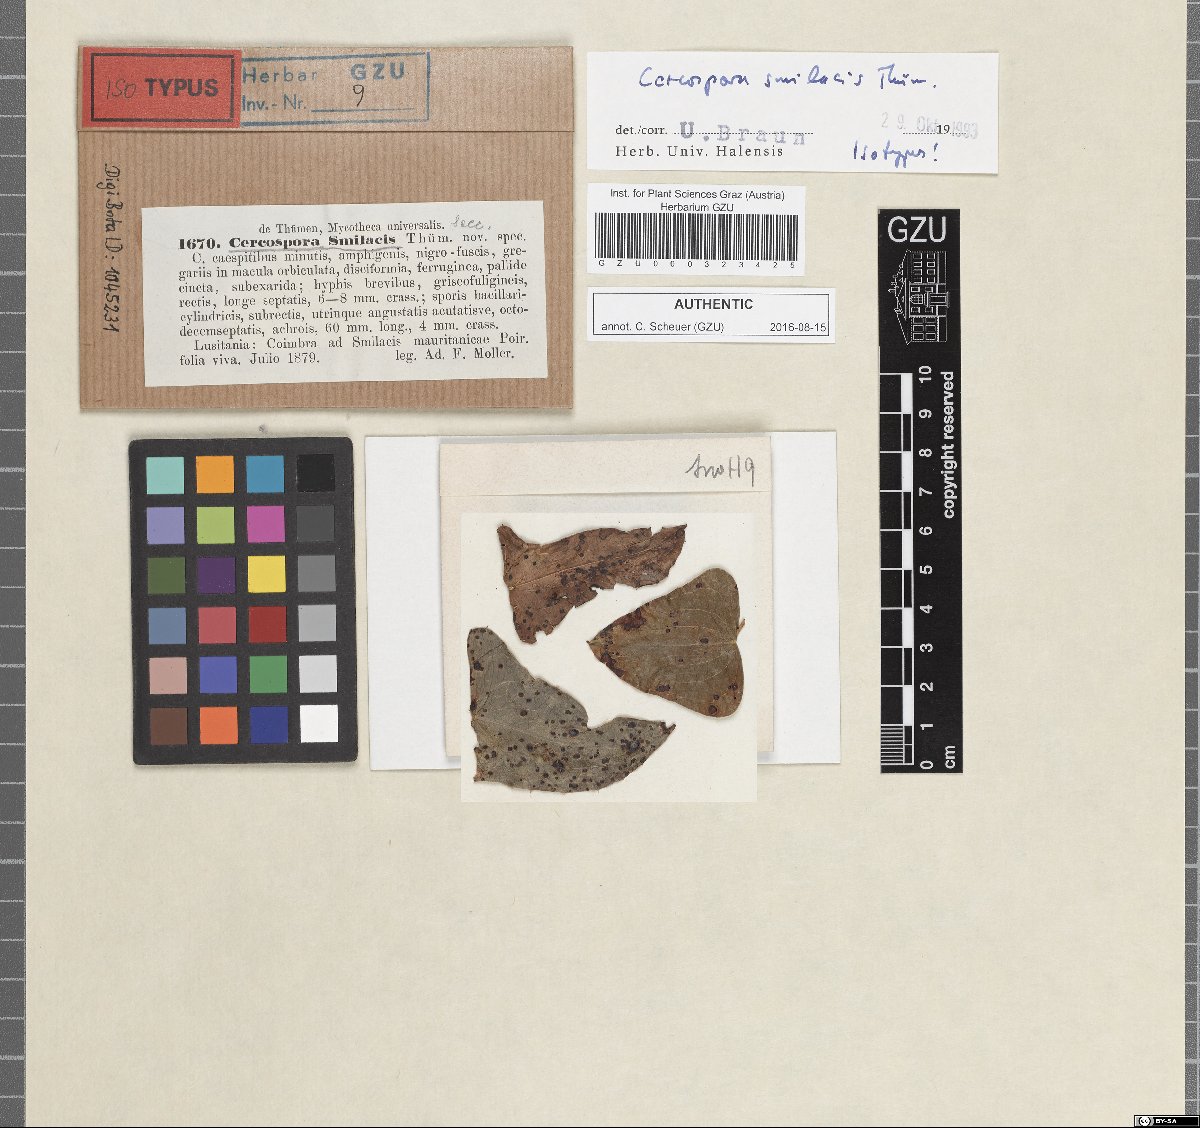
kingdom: Fungi
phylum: Ascomycota
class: Dothideomycetes
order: Mycosphaerellales
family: Mycosphaerellaceae
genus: Neocercosporidium
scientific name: Neocercosporidium smilacis
